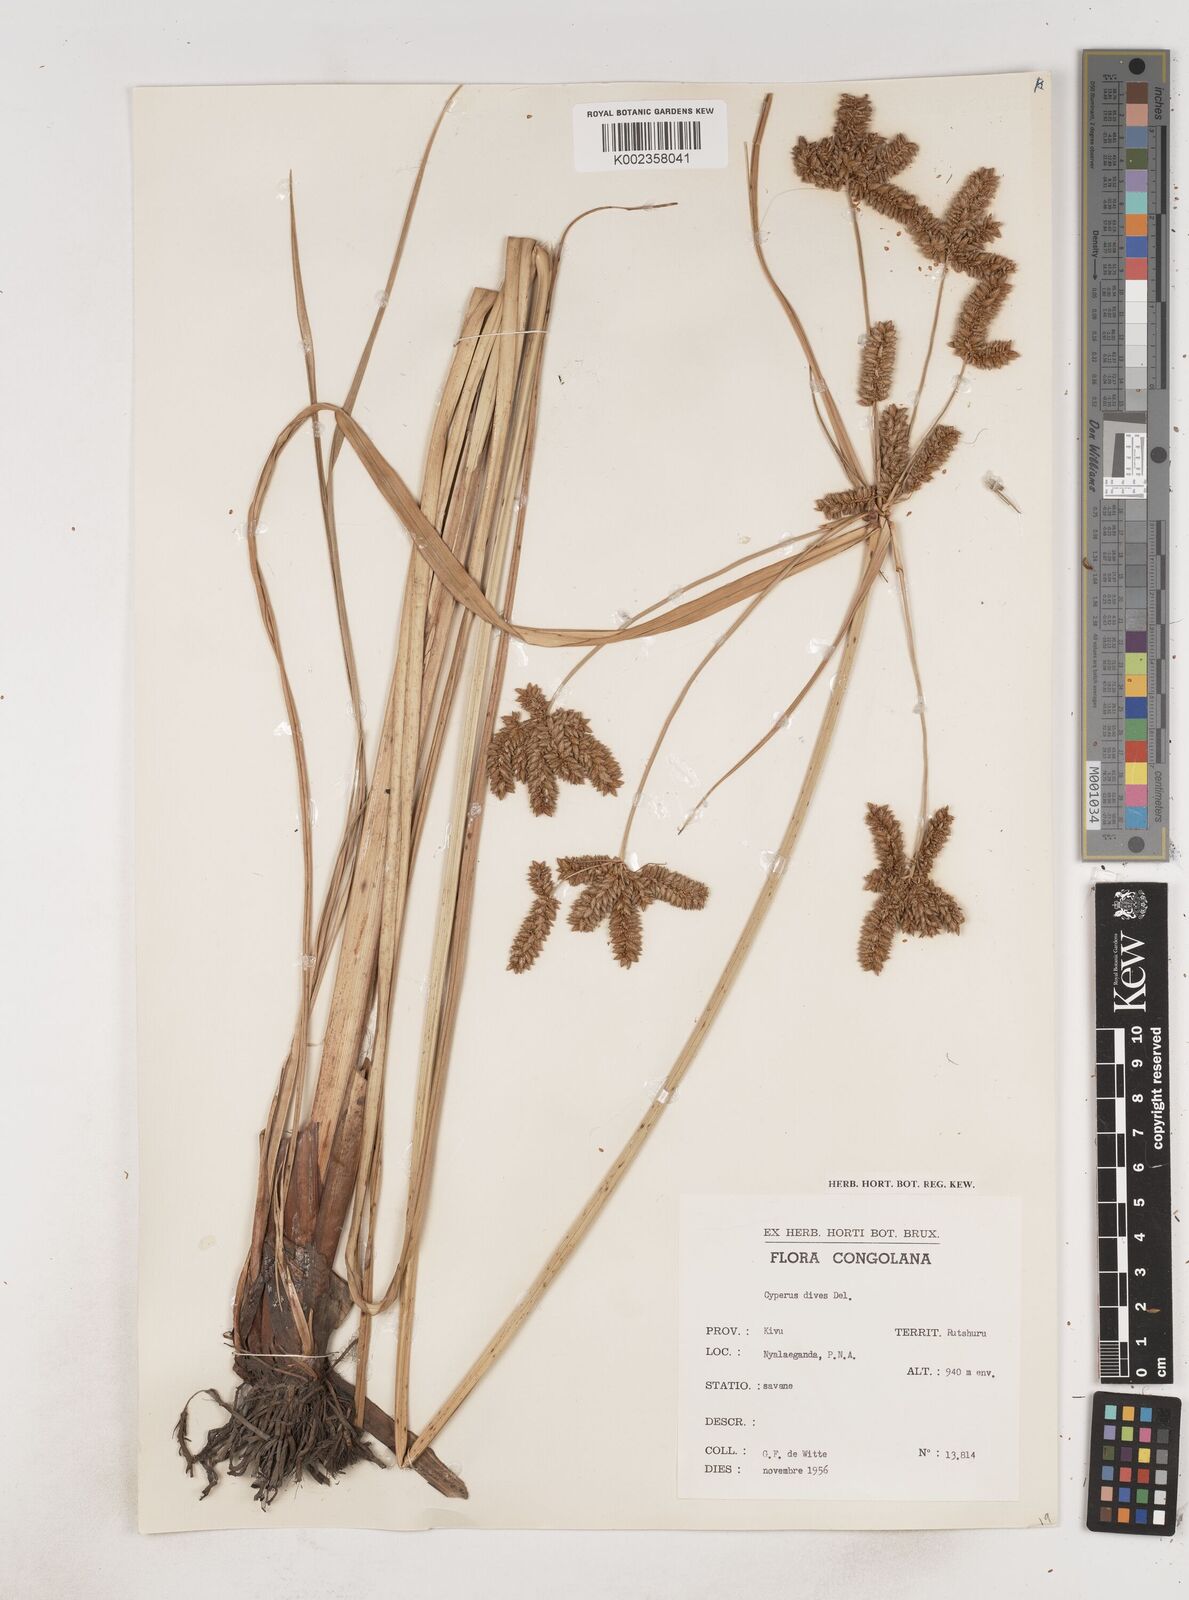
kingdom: Plantae
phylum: Tracheophyta
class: Liliopsida
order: Poales
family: Cyperaceae
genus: Cyperus
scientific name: Cyperus dives
